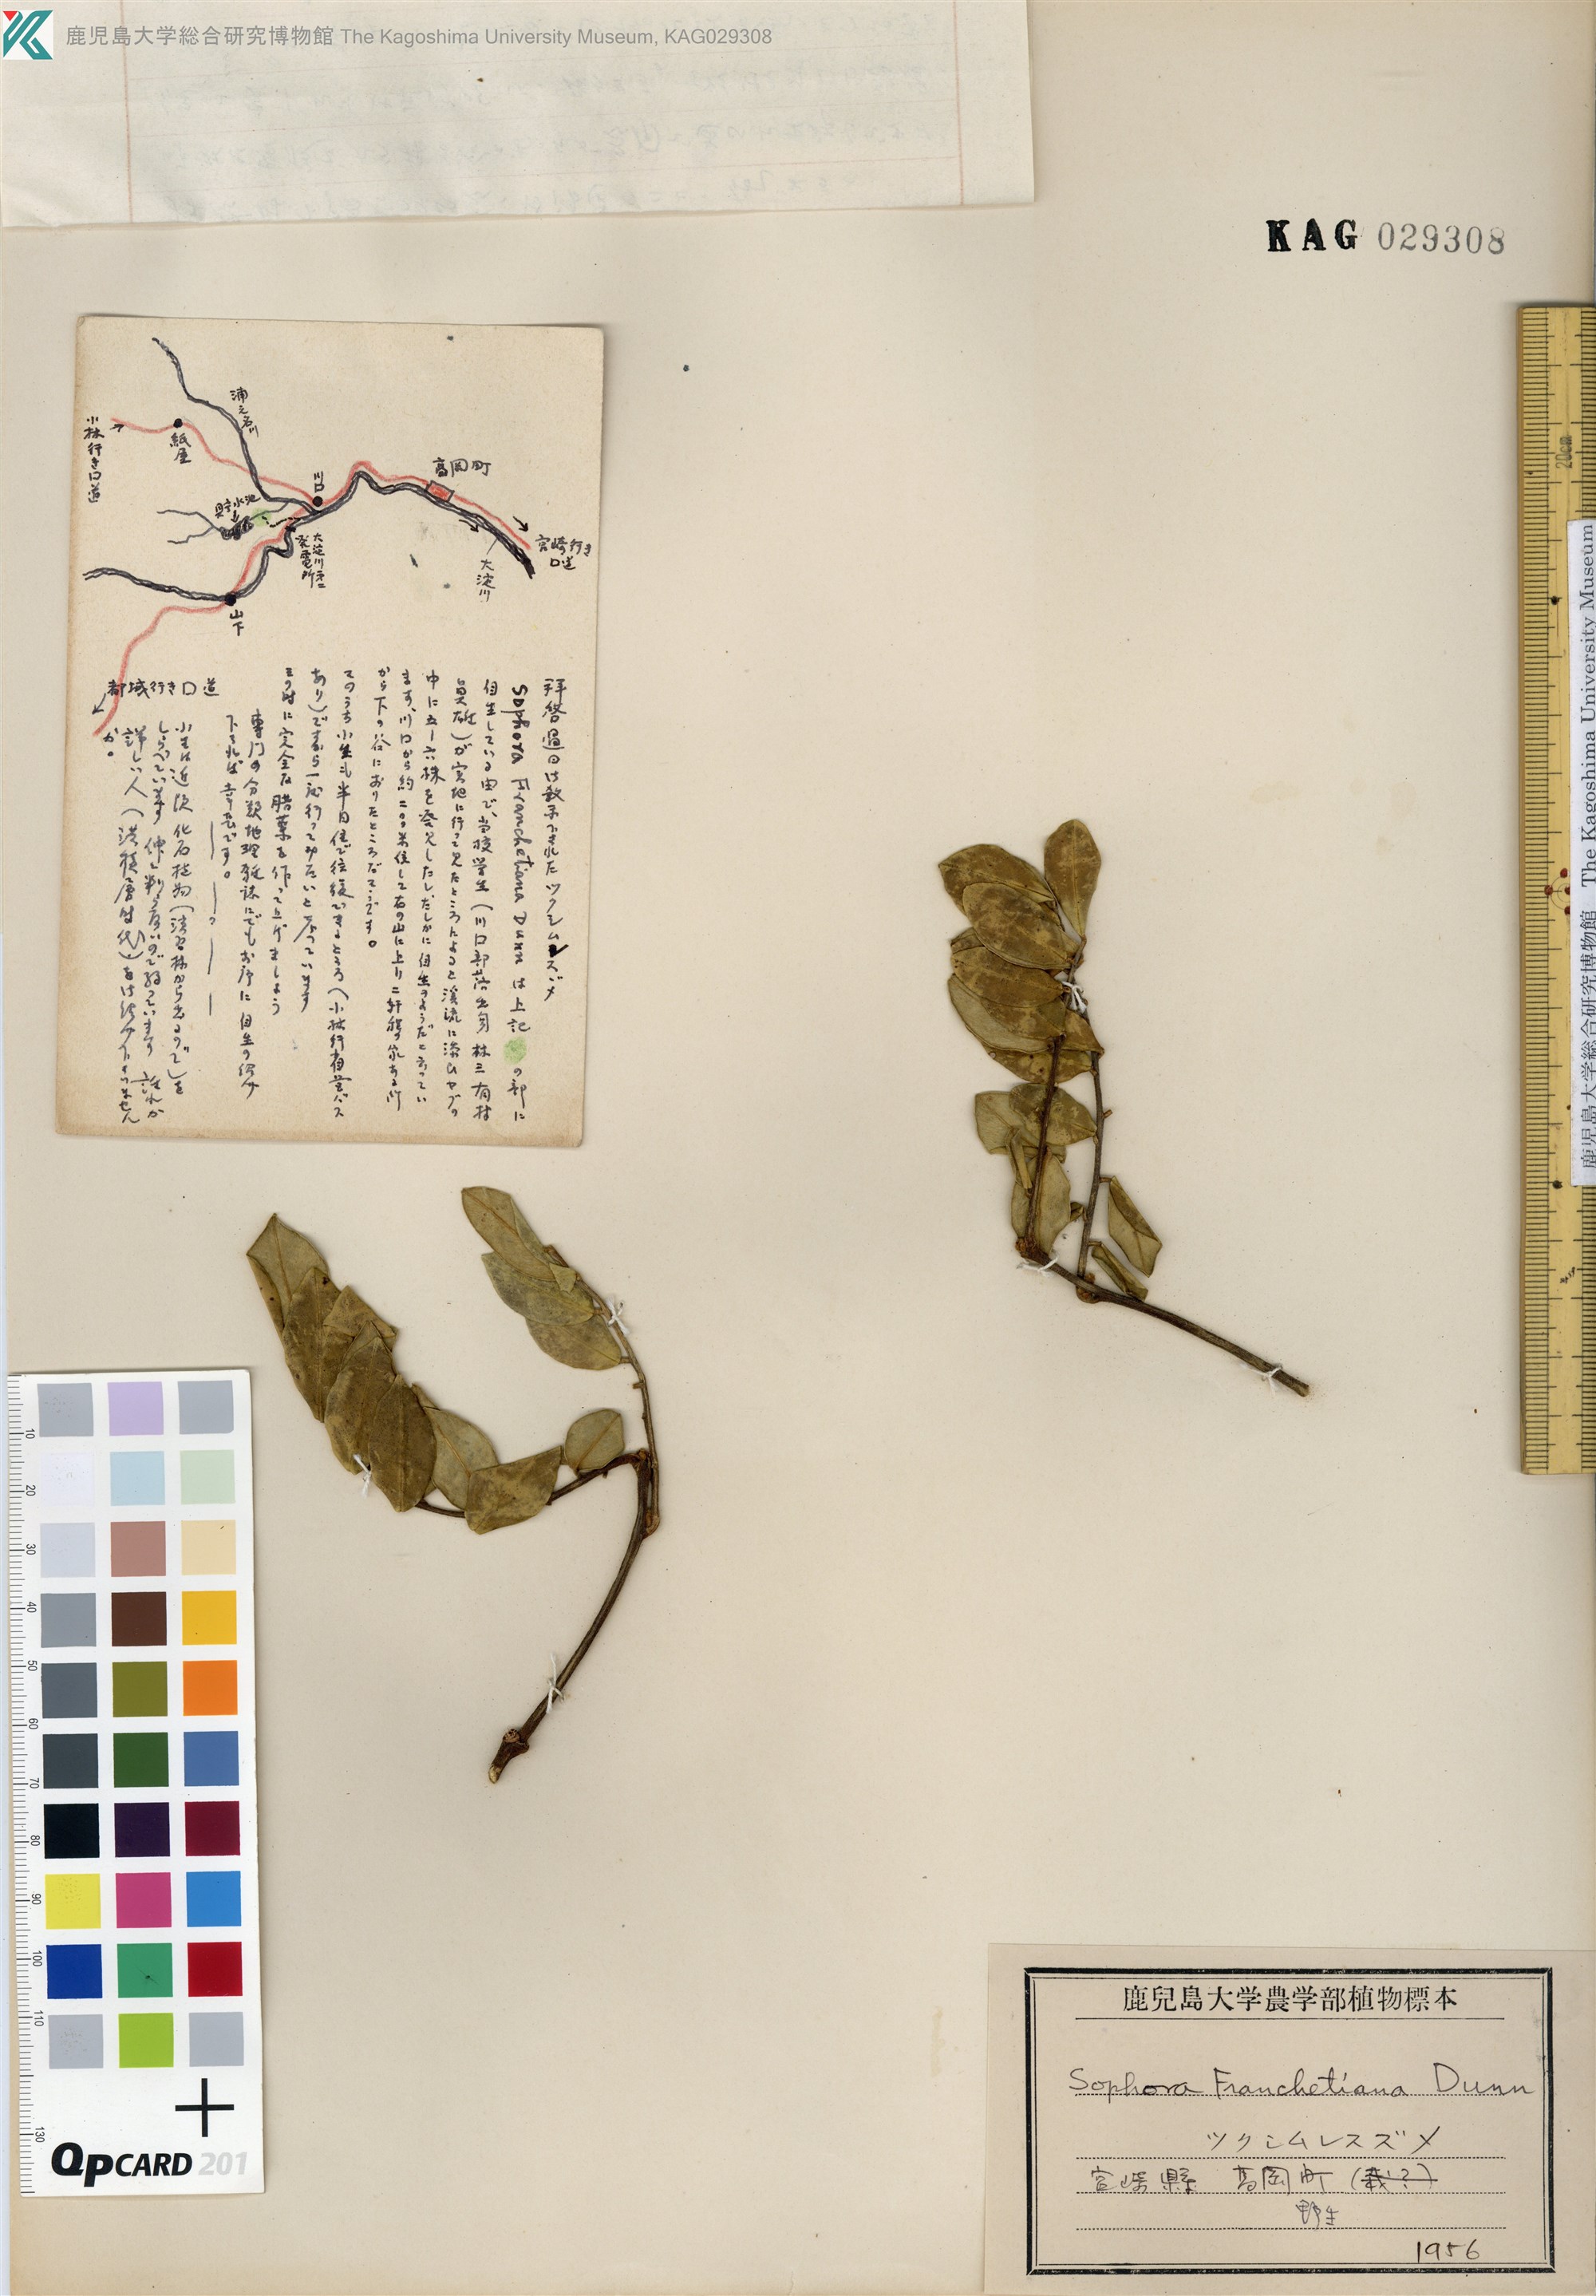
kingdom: Plantae
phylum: Tracheophyta
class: Magnoliopsida
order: Fabales
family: Fabaceae
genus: Sophora
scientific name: Sophora franchetiana
